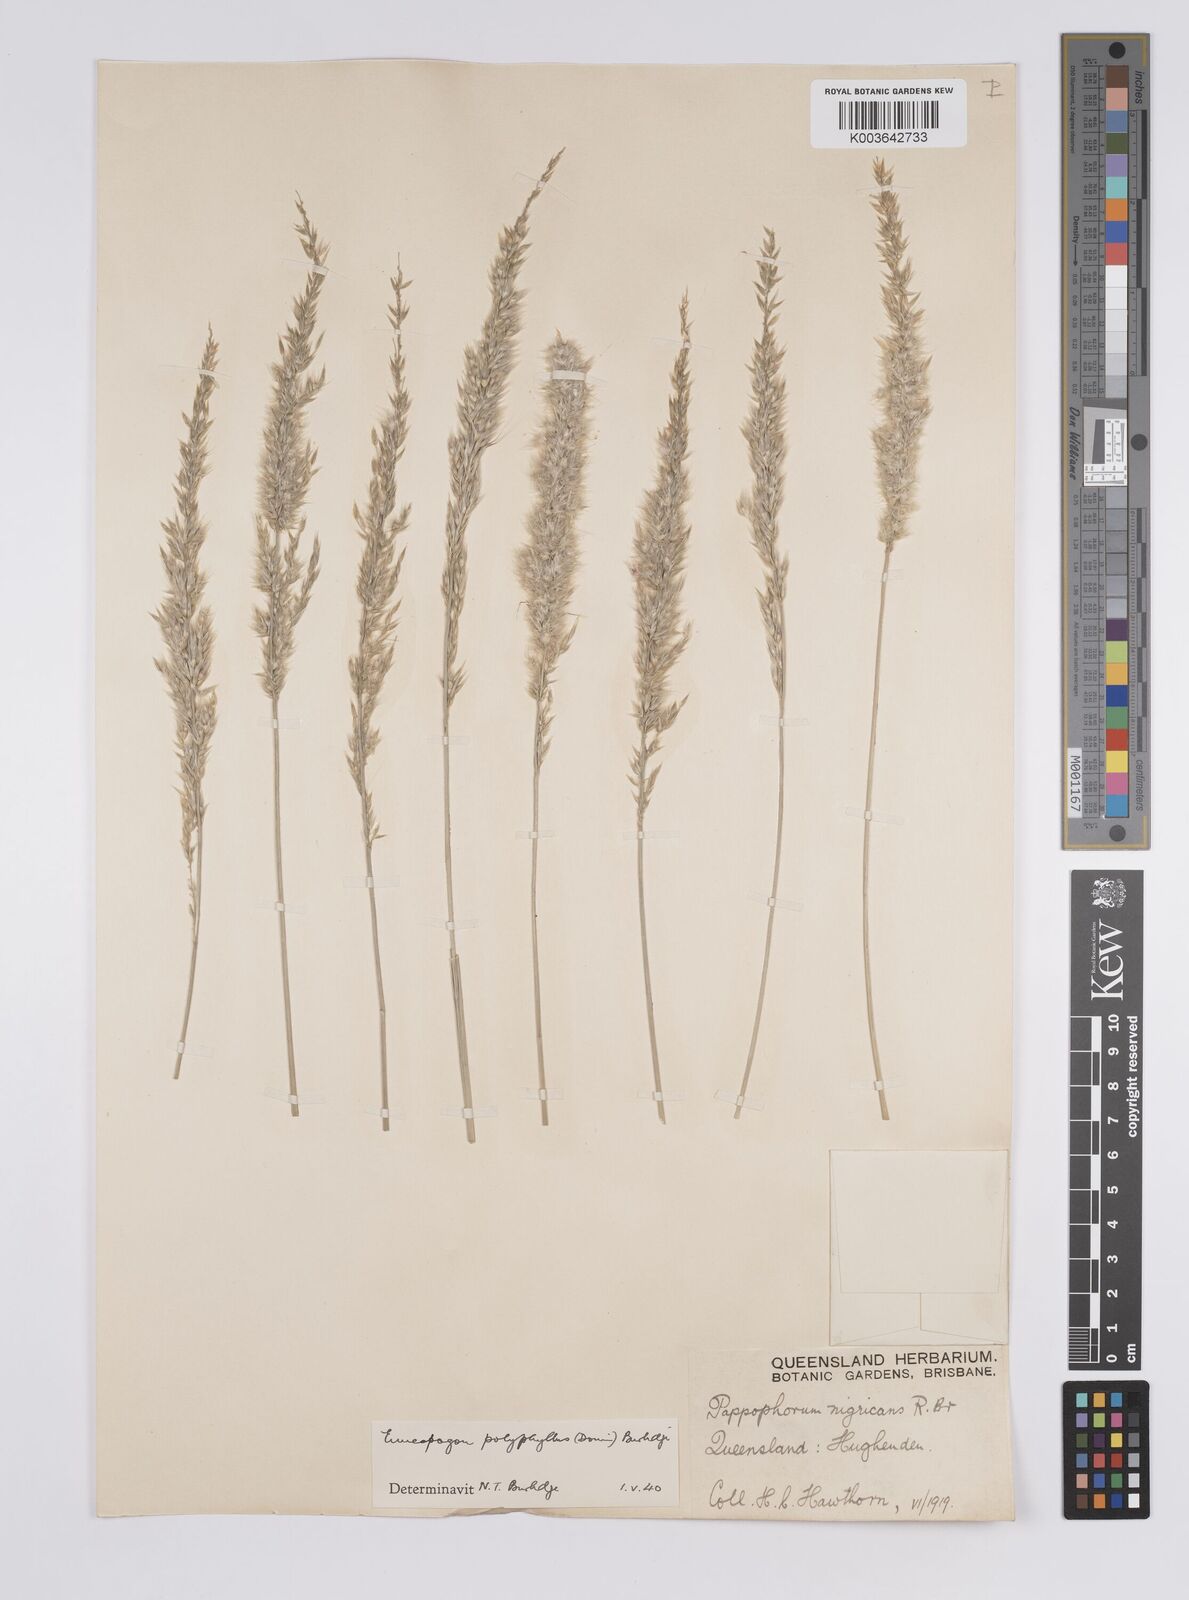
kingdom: Plantae
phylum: Tracheophyta
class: Liliopsida
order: Poales
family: Poaceae
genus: Enneapogon
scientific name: Enneapogon polyphyllus
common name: Leafy nineawn
